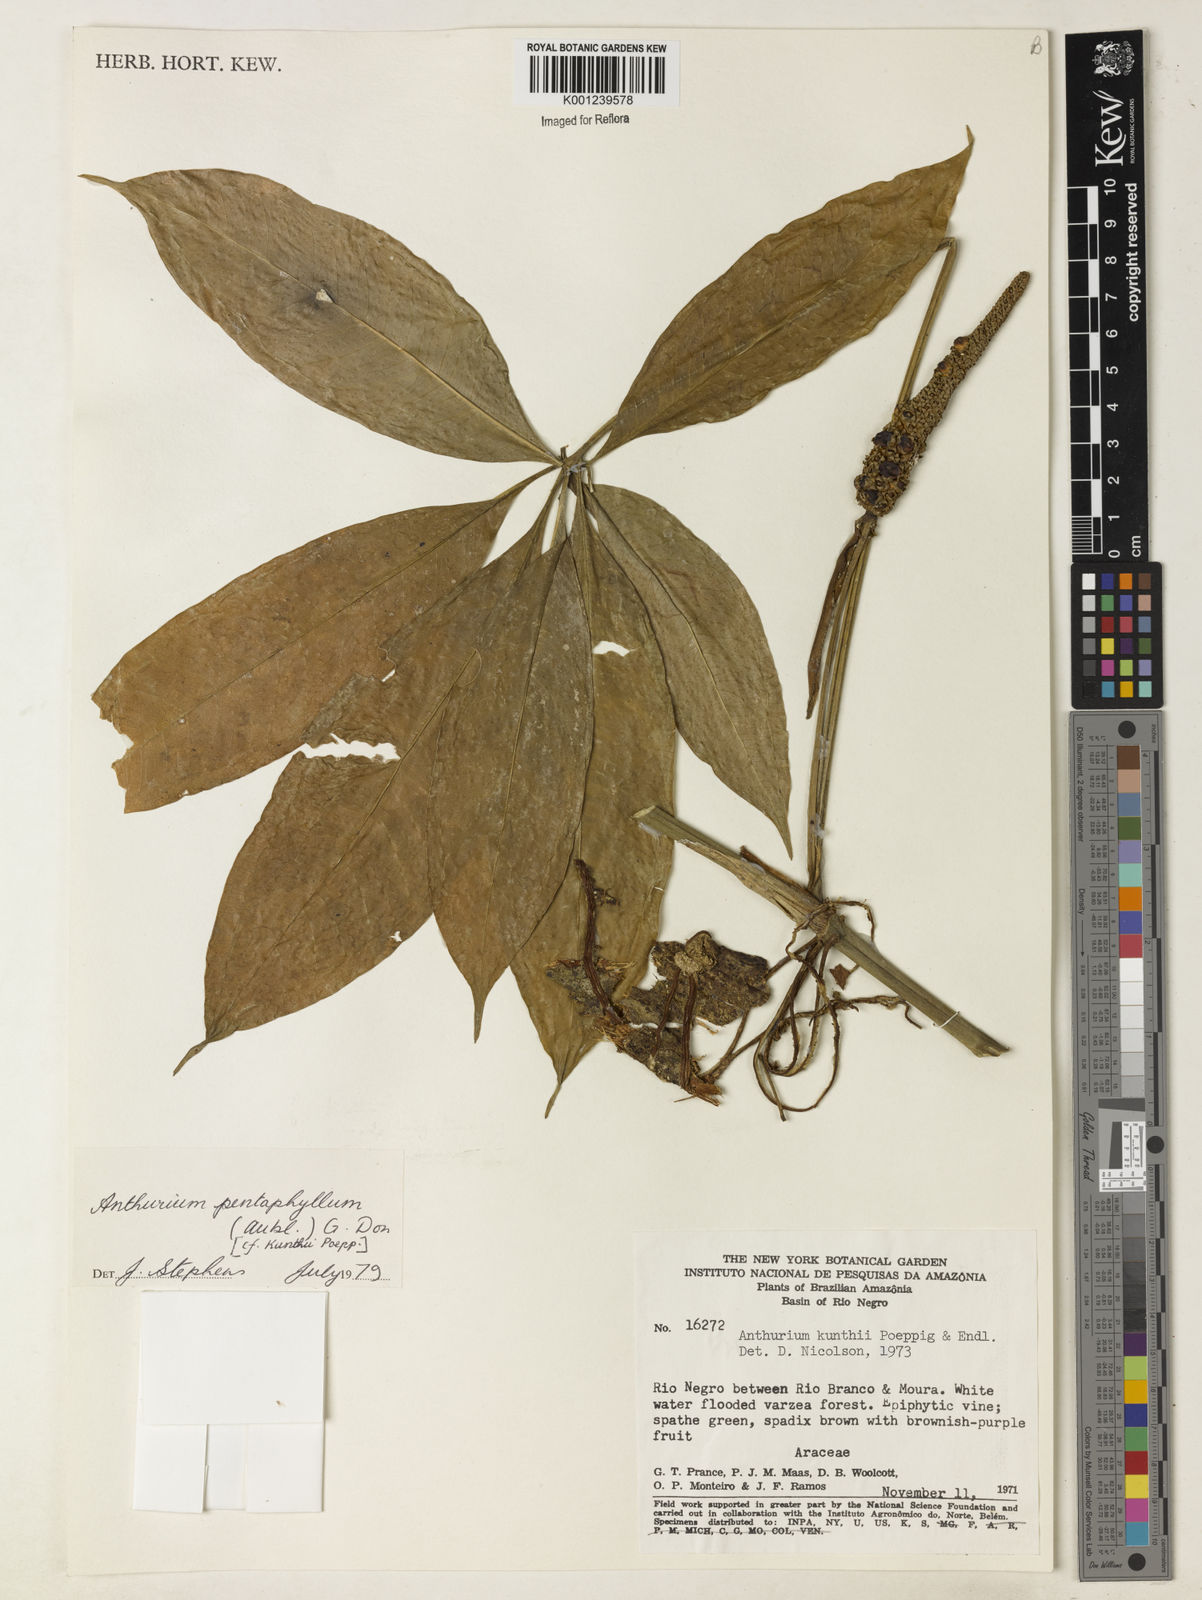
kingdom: Plantae
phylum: Tracheophyta
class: Liliopsida
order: Alismatales
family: Araceae
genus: Anthurium
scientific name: Anthurium pentaphyllum
